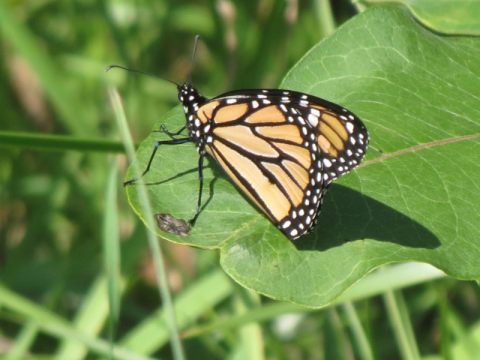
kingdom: Animalia
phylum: Arthropoda
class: Insecta
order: Lepidoptera
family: Nymphalidae
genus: Danaus
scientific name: Danaus plexippus
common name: Monarch
